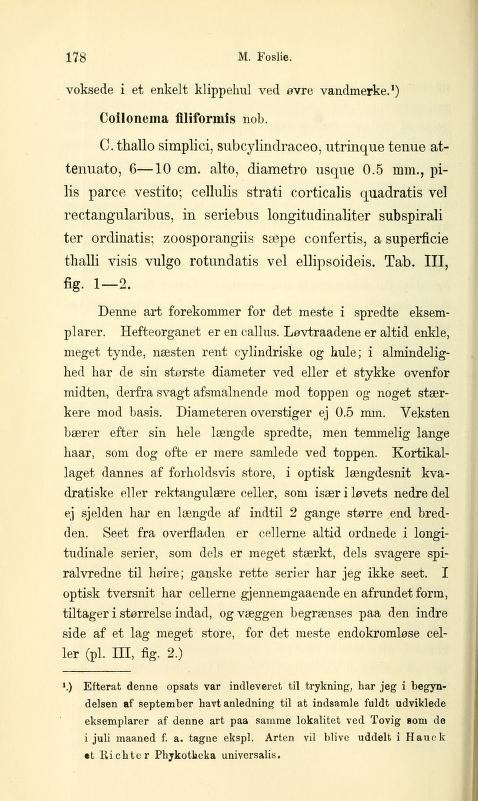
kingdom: Chromista
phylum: Ochrophyta
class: Phaeophyceae
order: Scytosiphonales
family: Scytosiphonaceae
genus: Scytosiphon
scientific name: Scytosiphon lomentaria
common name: Beanweed
